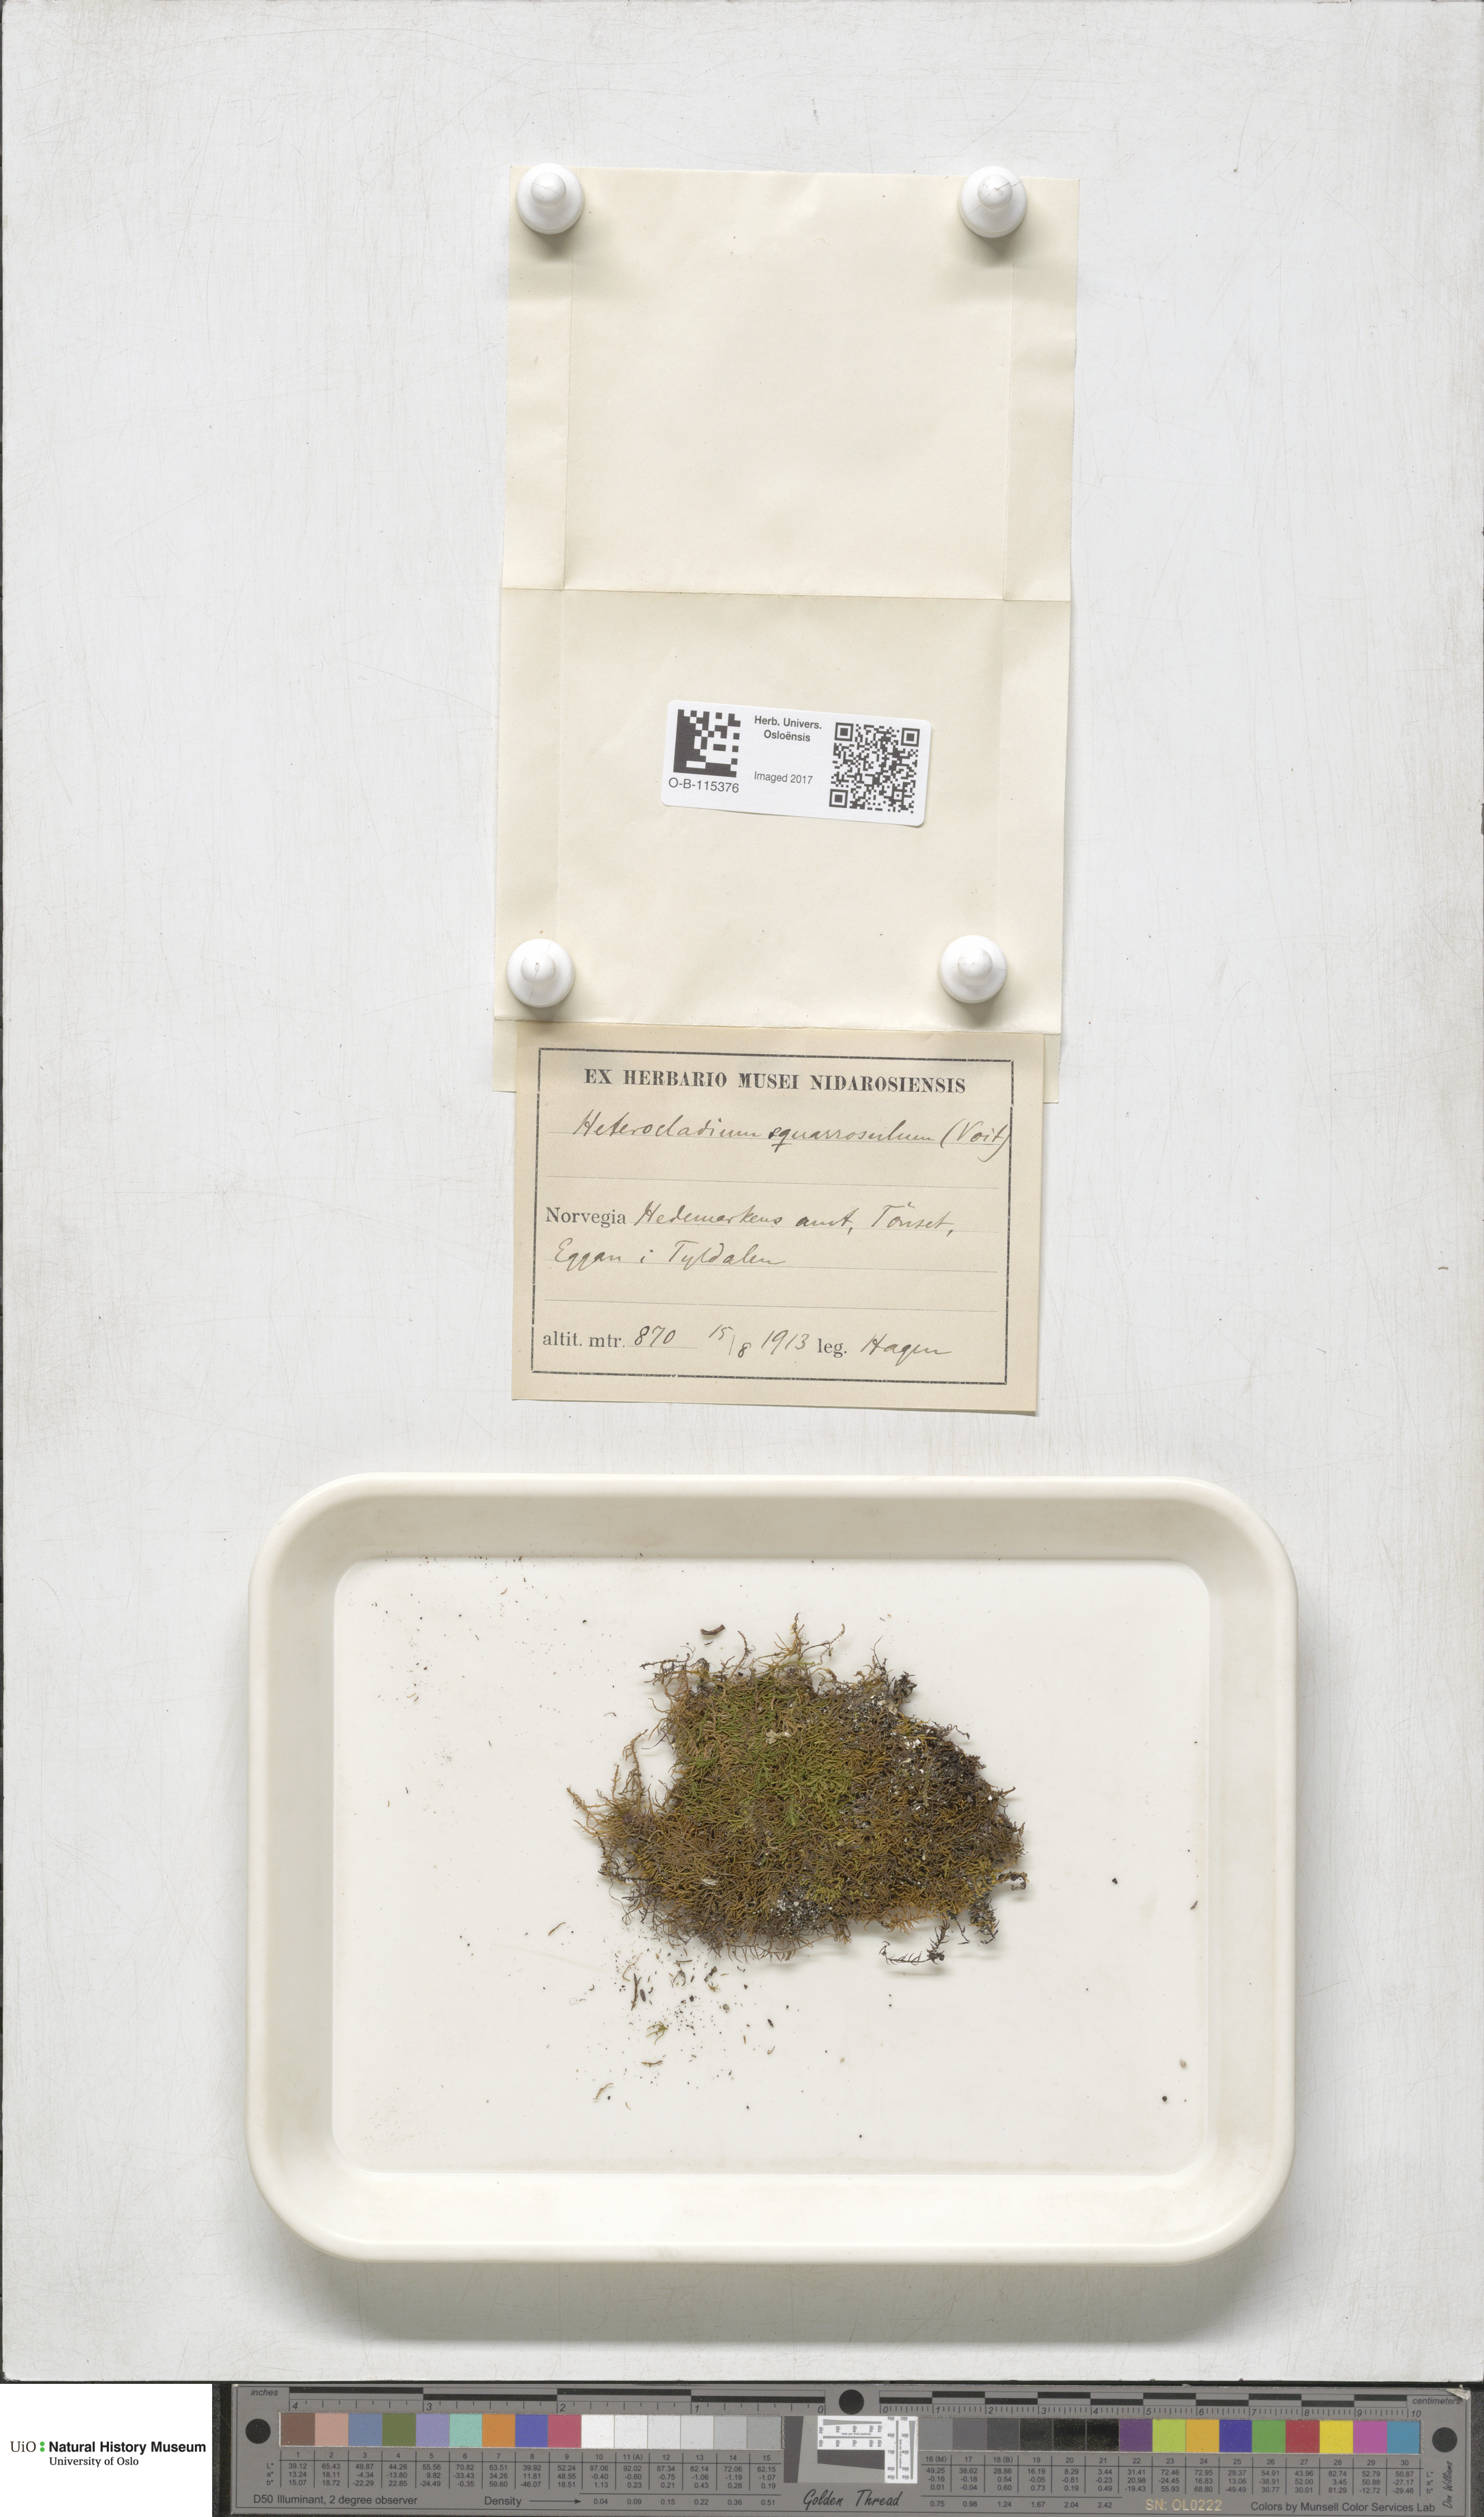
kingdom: Plantae
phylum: Bryophyta
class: Bryopsida
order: Hypnales
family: Heterocladiellaceae
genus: Heterocladiella
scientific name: Heterocladiella dimorpha
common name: Dimorphous tamarisk-moss
